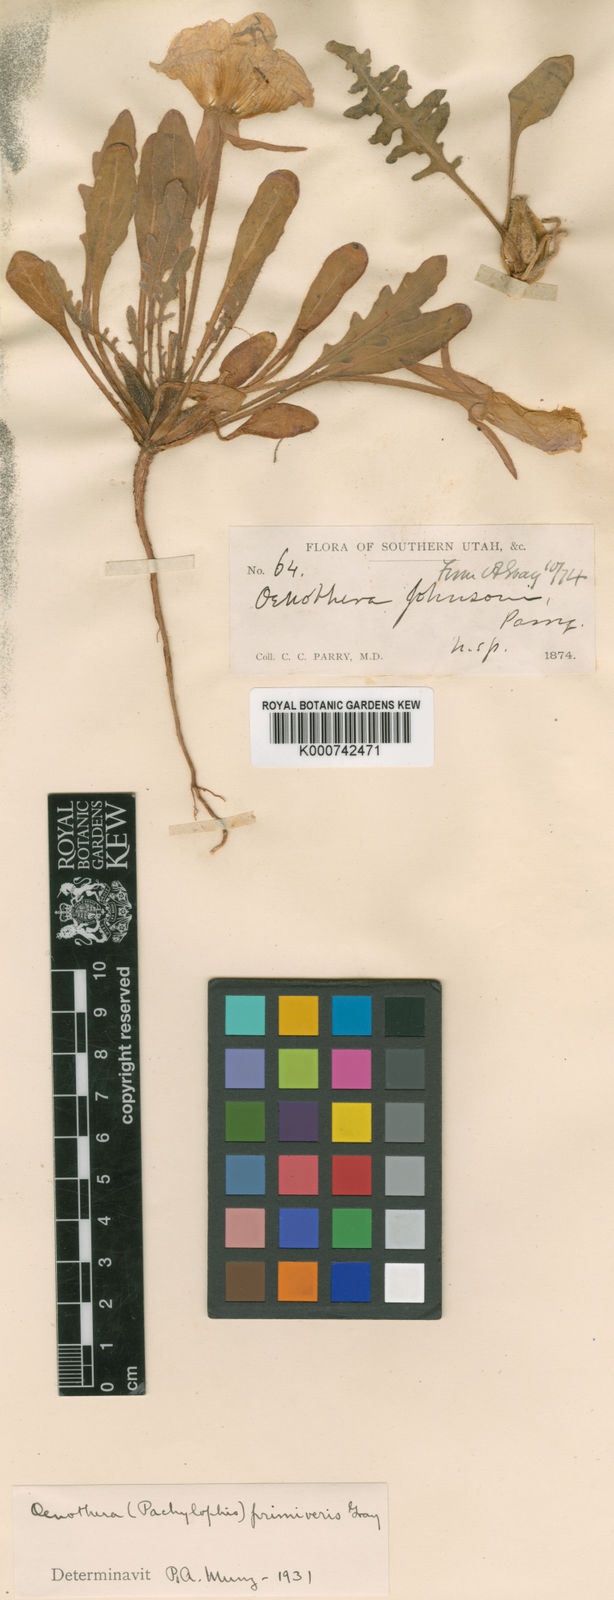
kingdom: Plantae
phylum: Tracheophyta
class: Magnoliopsida
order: Myrtales
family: Onagraceae
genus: Oenothera
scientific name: Oenothera primiveris
